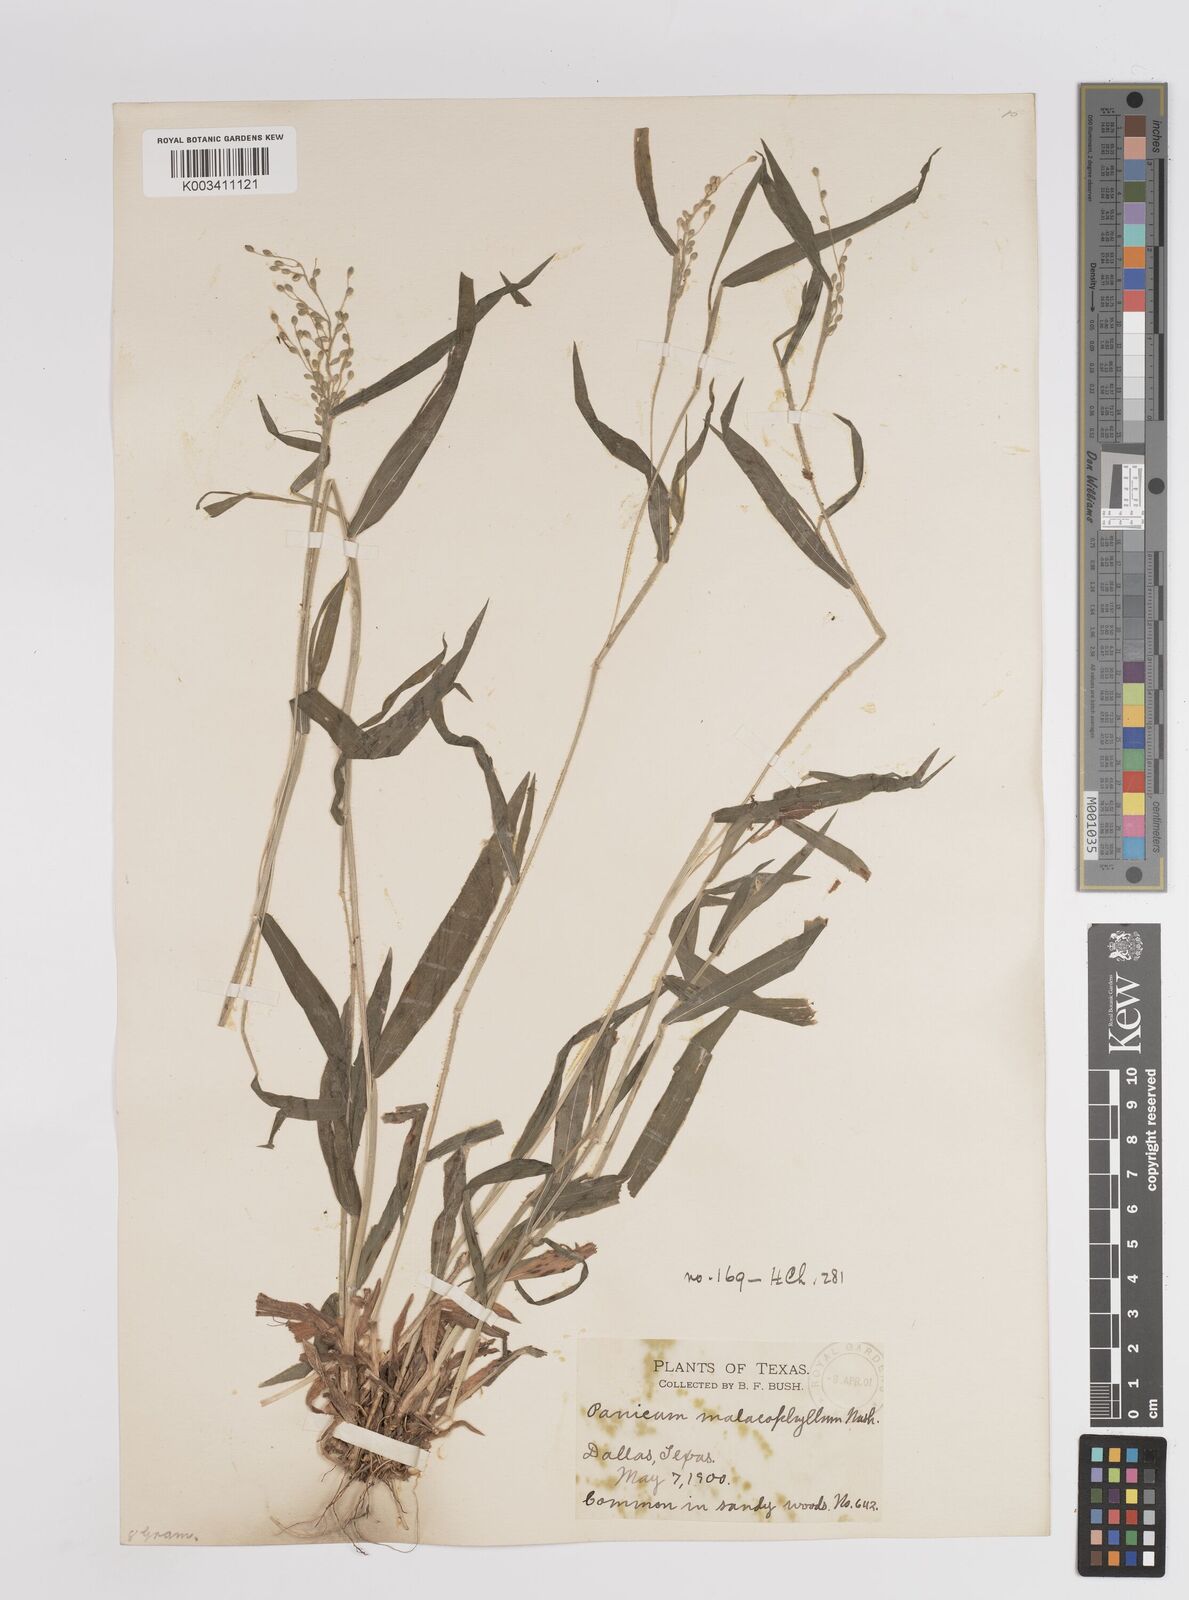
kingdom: Plantae
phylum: Tracheophyta
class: Liliopsida
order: Poales
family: Poaceae
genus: Dichanthelium
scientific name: Dichanthelium malacophyllum
